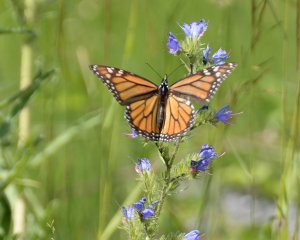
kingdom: Animalia
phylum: Arthropoda
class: Insecta
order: Lepidoptera
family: Nymphalidae
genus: Danaus
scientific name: Danaus plexippus
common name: Monarch
